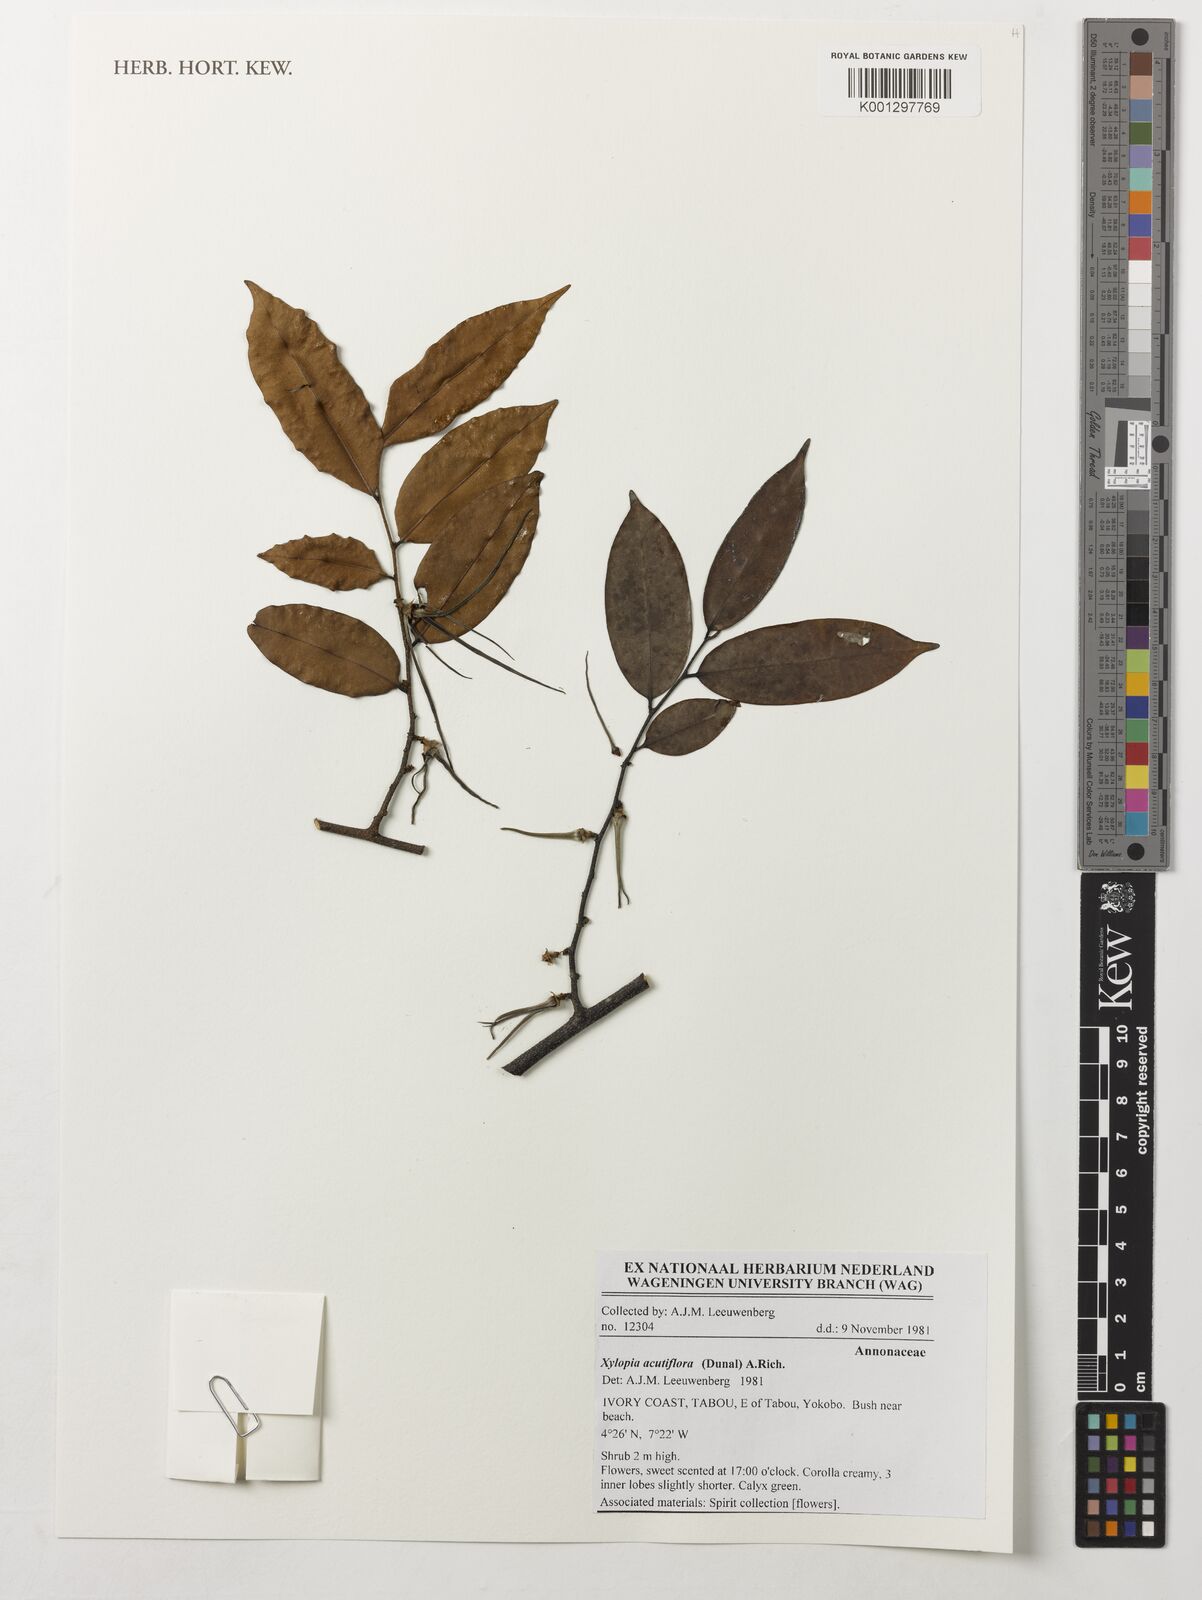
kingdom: Plantae
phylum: Tracheophyta
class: Magnoliopsida
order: Magnoliales
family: Annonaceae
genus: Xylopia
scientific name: Xylopia acutiflora
